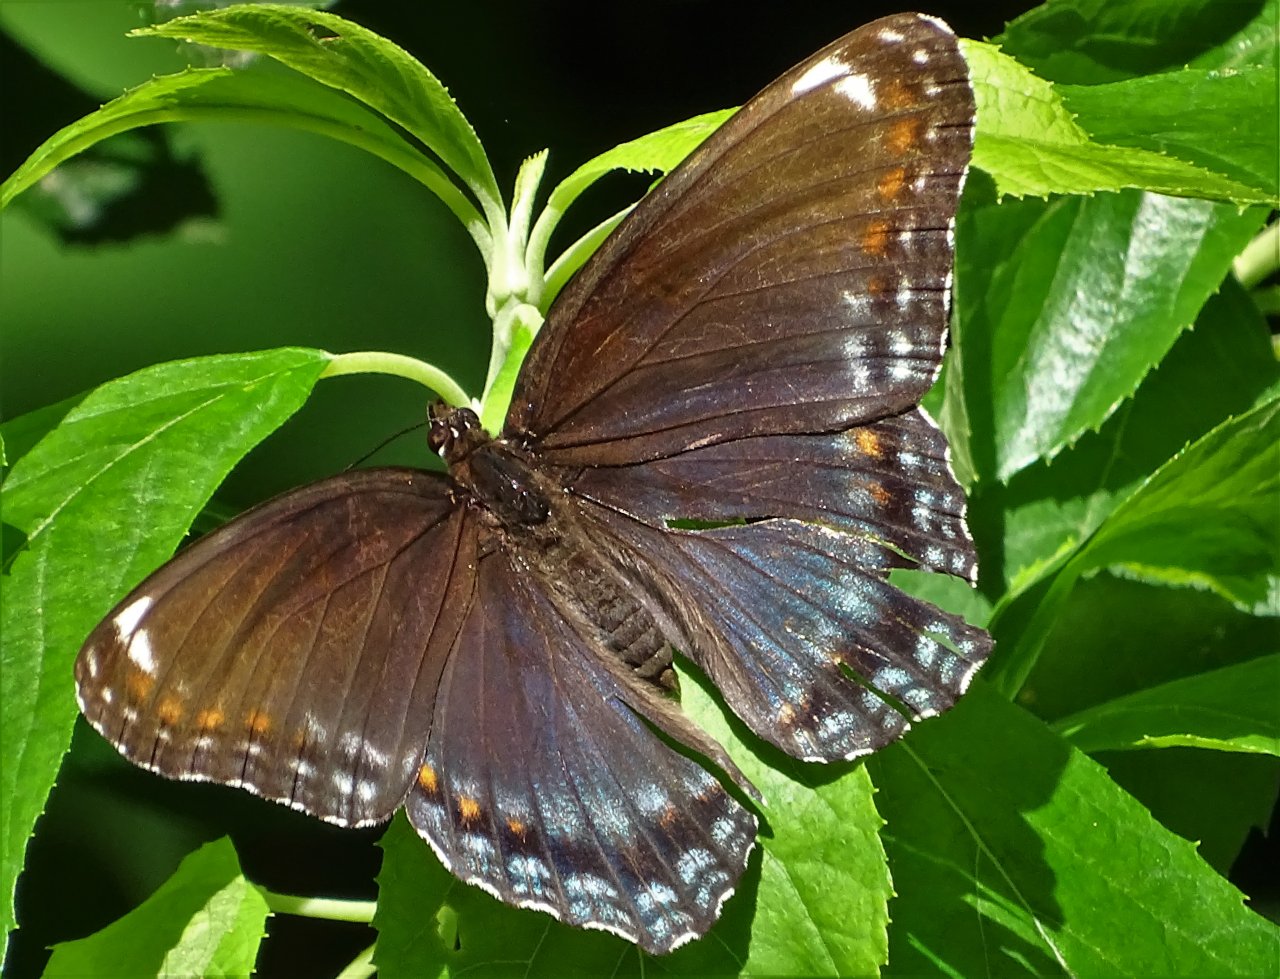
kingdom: Animalia
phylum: Arthropoda
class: Insecta
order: Lepidoptera
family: Nymphalidae
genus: Limenitis
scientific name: Limenitis astyanax
